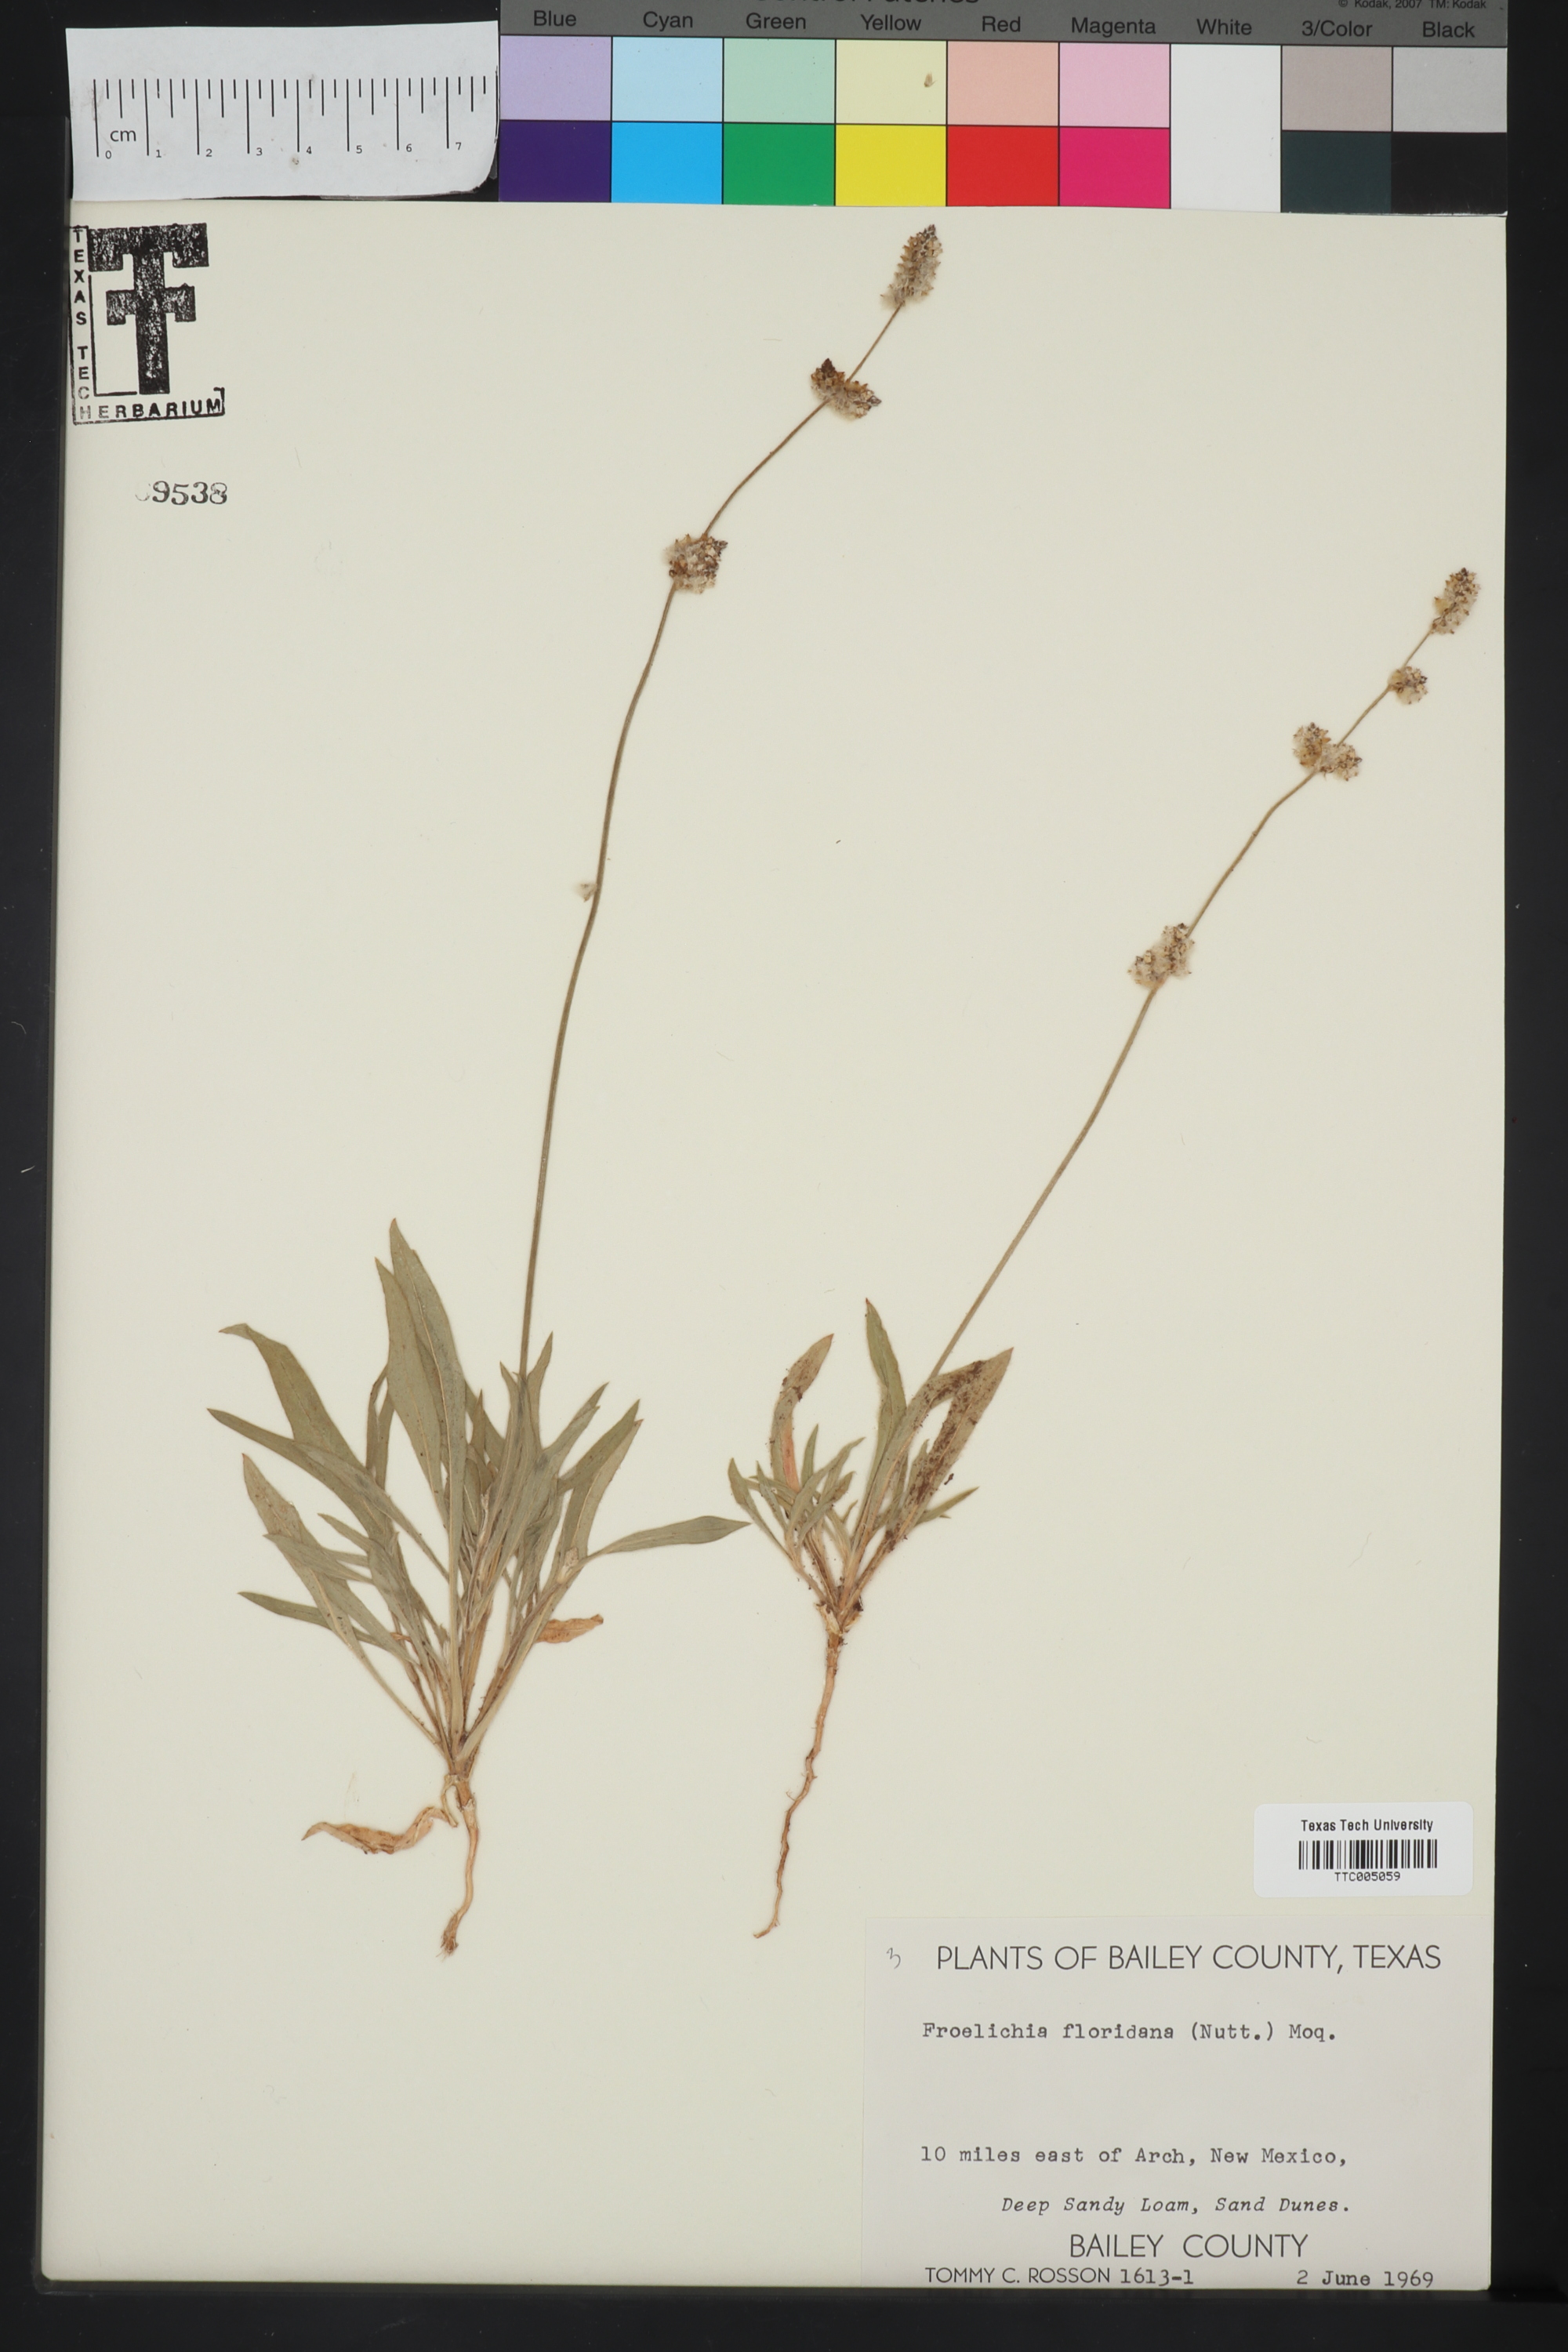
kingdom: Plantae
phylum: Tracheophyta
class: Magnoliopsida
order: Caryophyllales
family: Amaranthaceae
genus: Froelichia
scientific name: Froelichia floridana
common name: Florida snake-cotton
